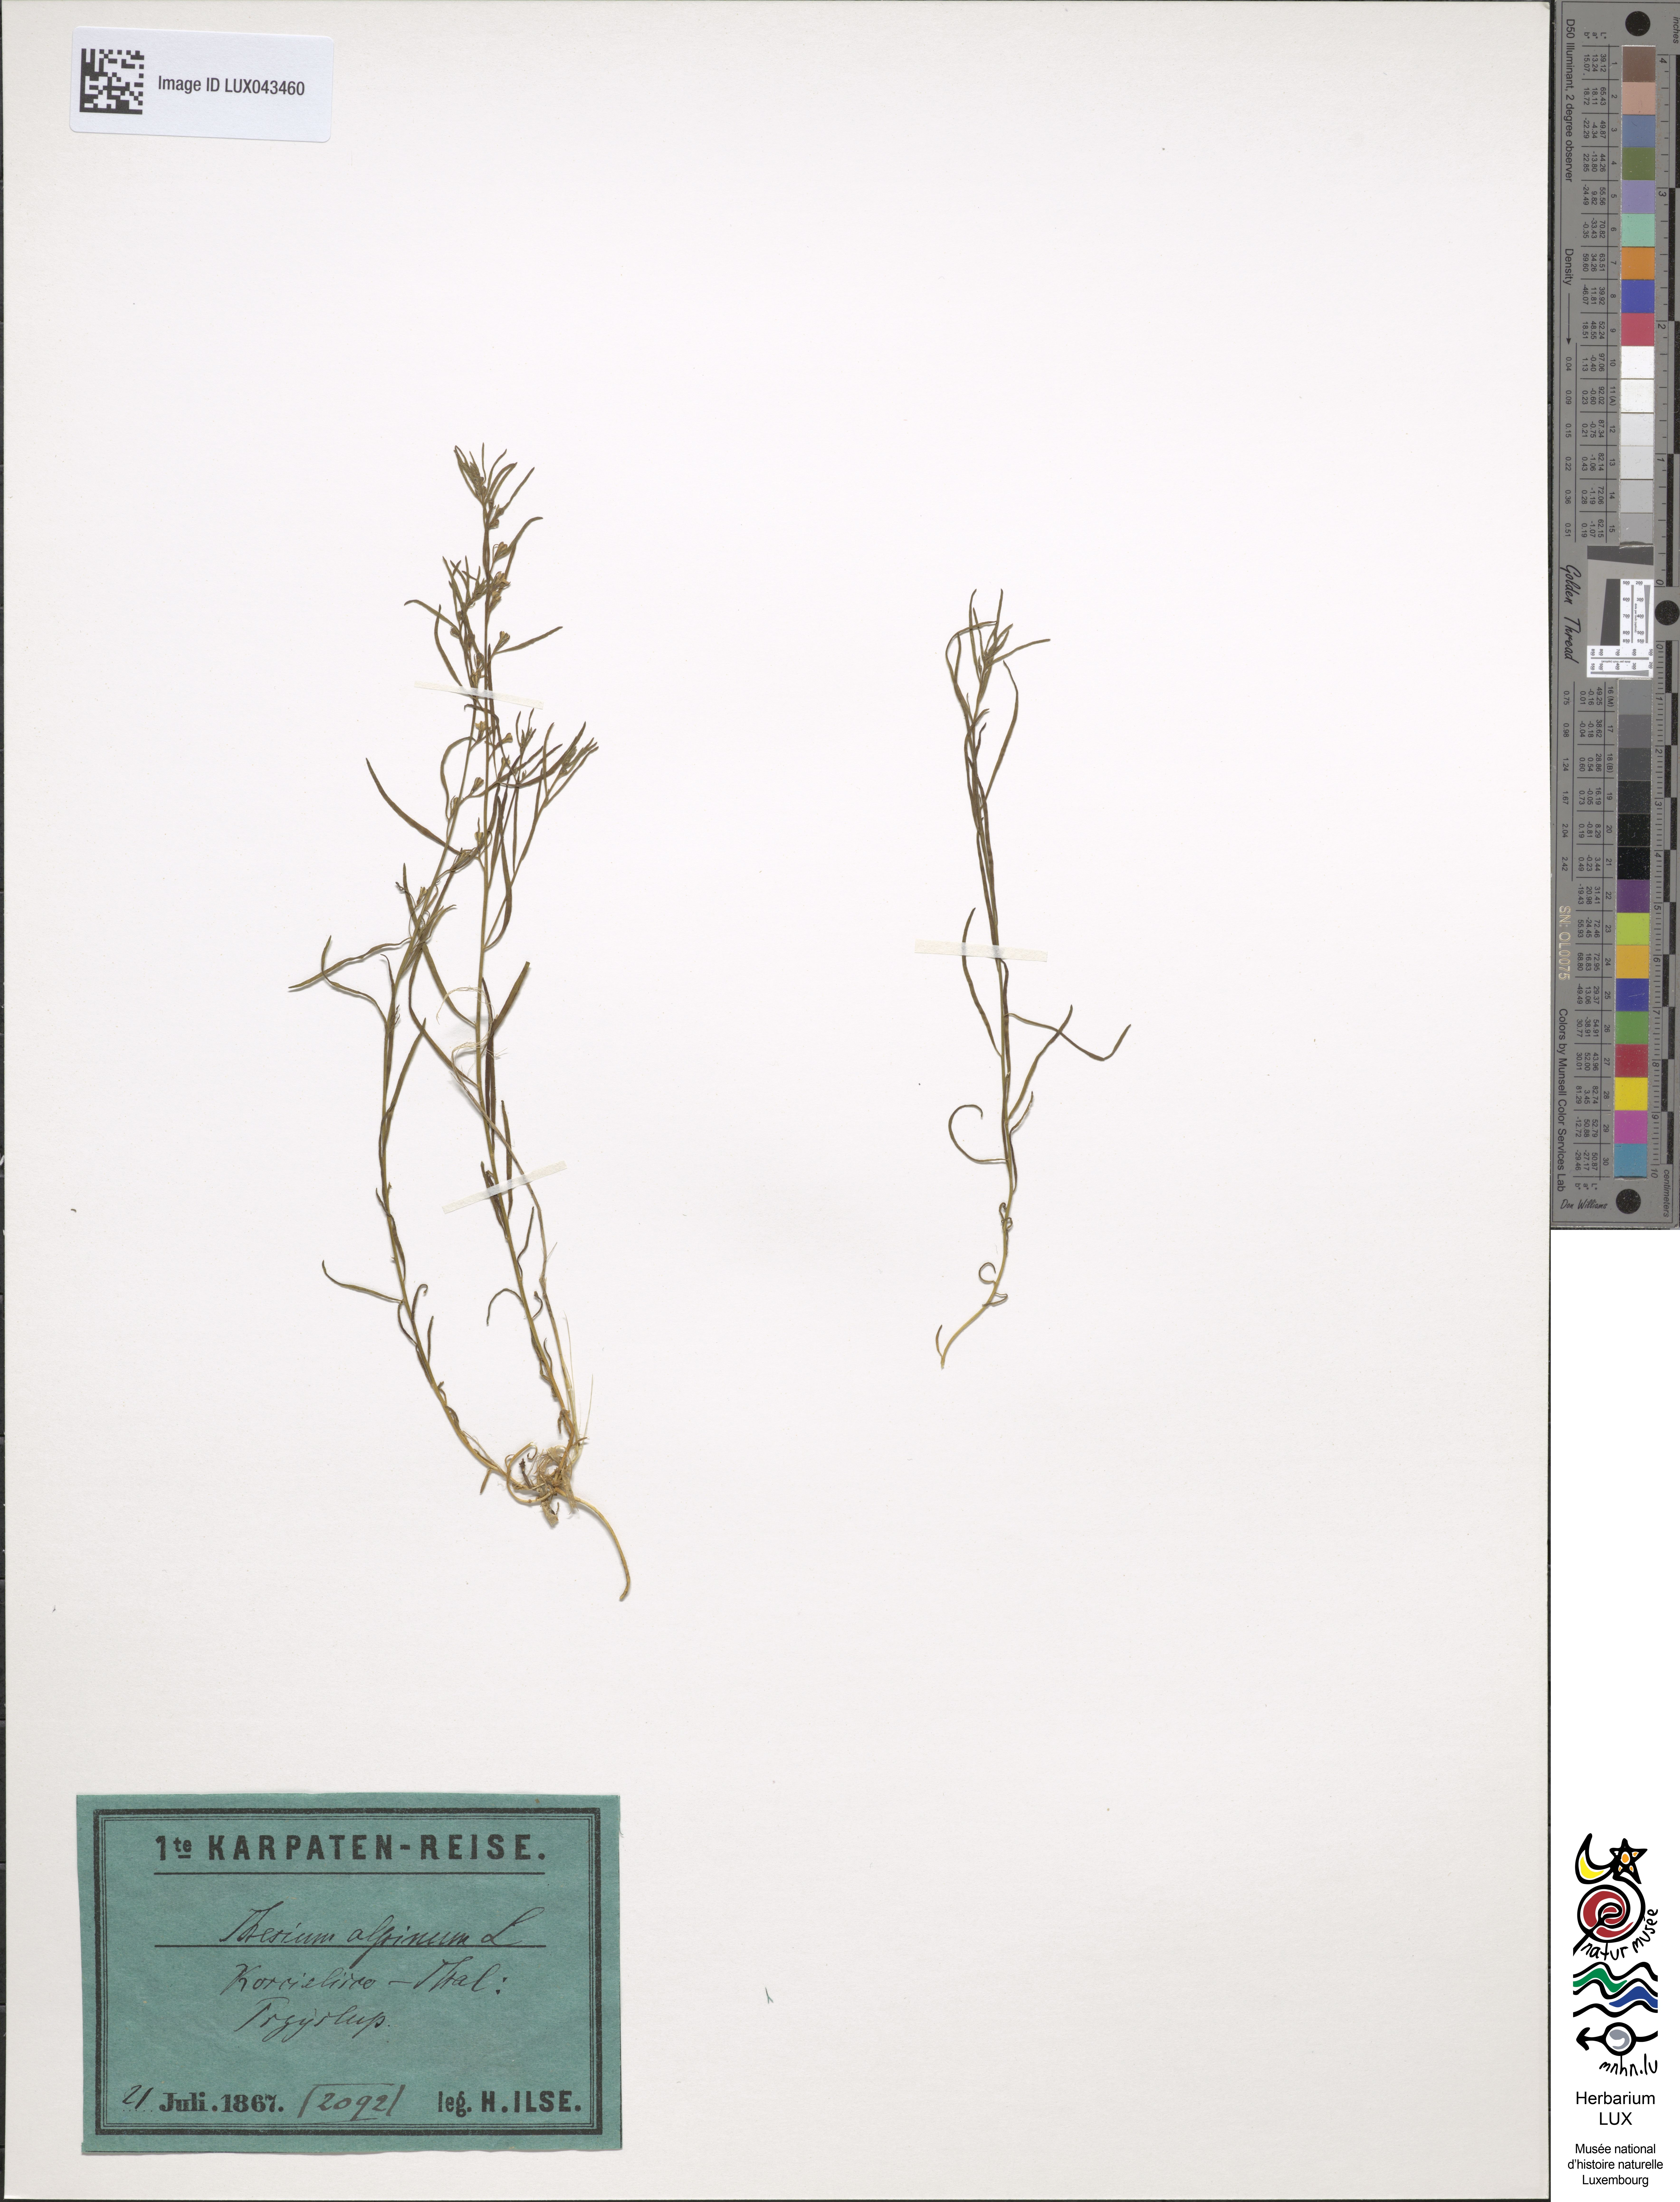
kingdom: Plantae
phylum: Tracheophyta
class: Magnoliopsida
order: Santalales
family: Thesiaceae
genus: Thesium
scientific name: Thesium alpinum
